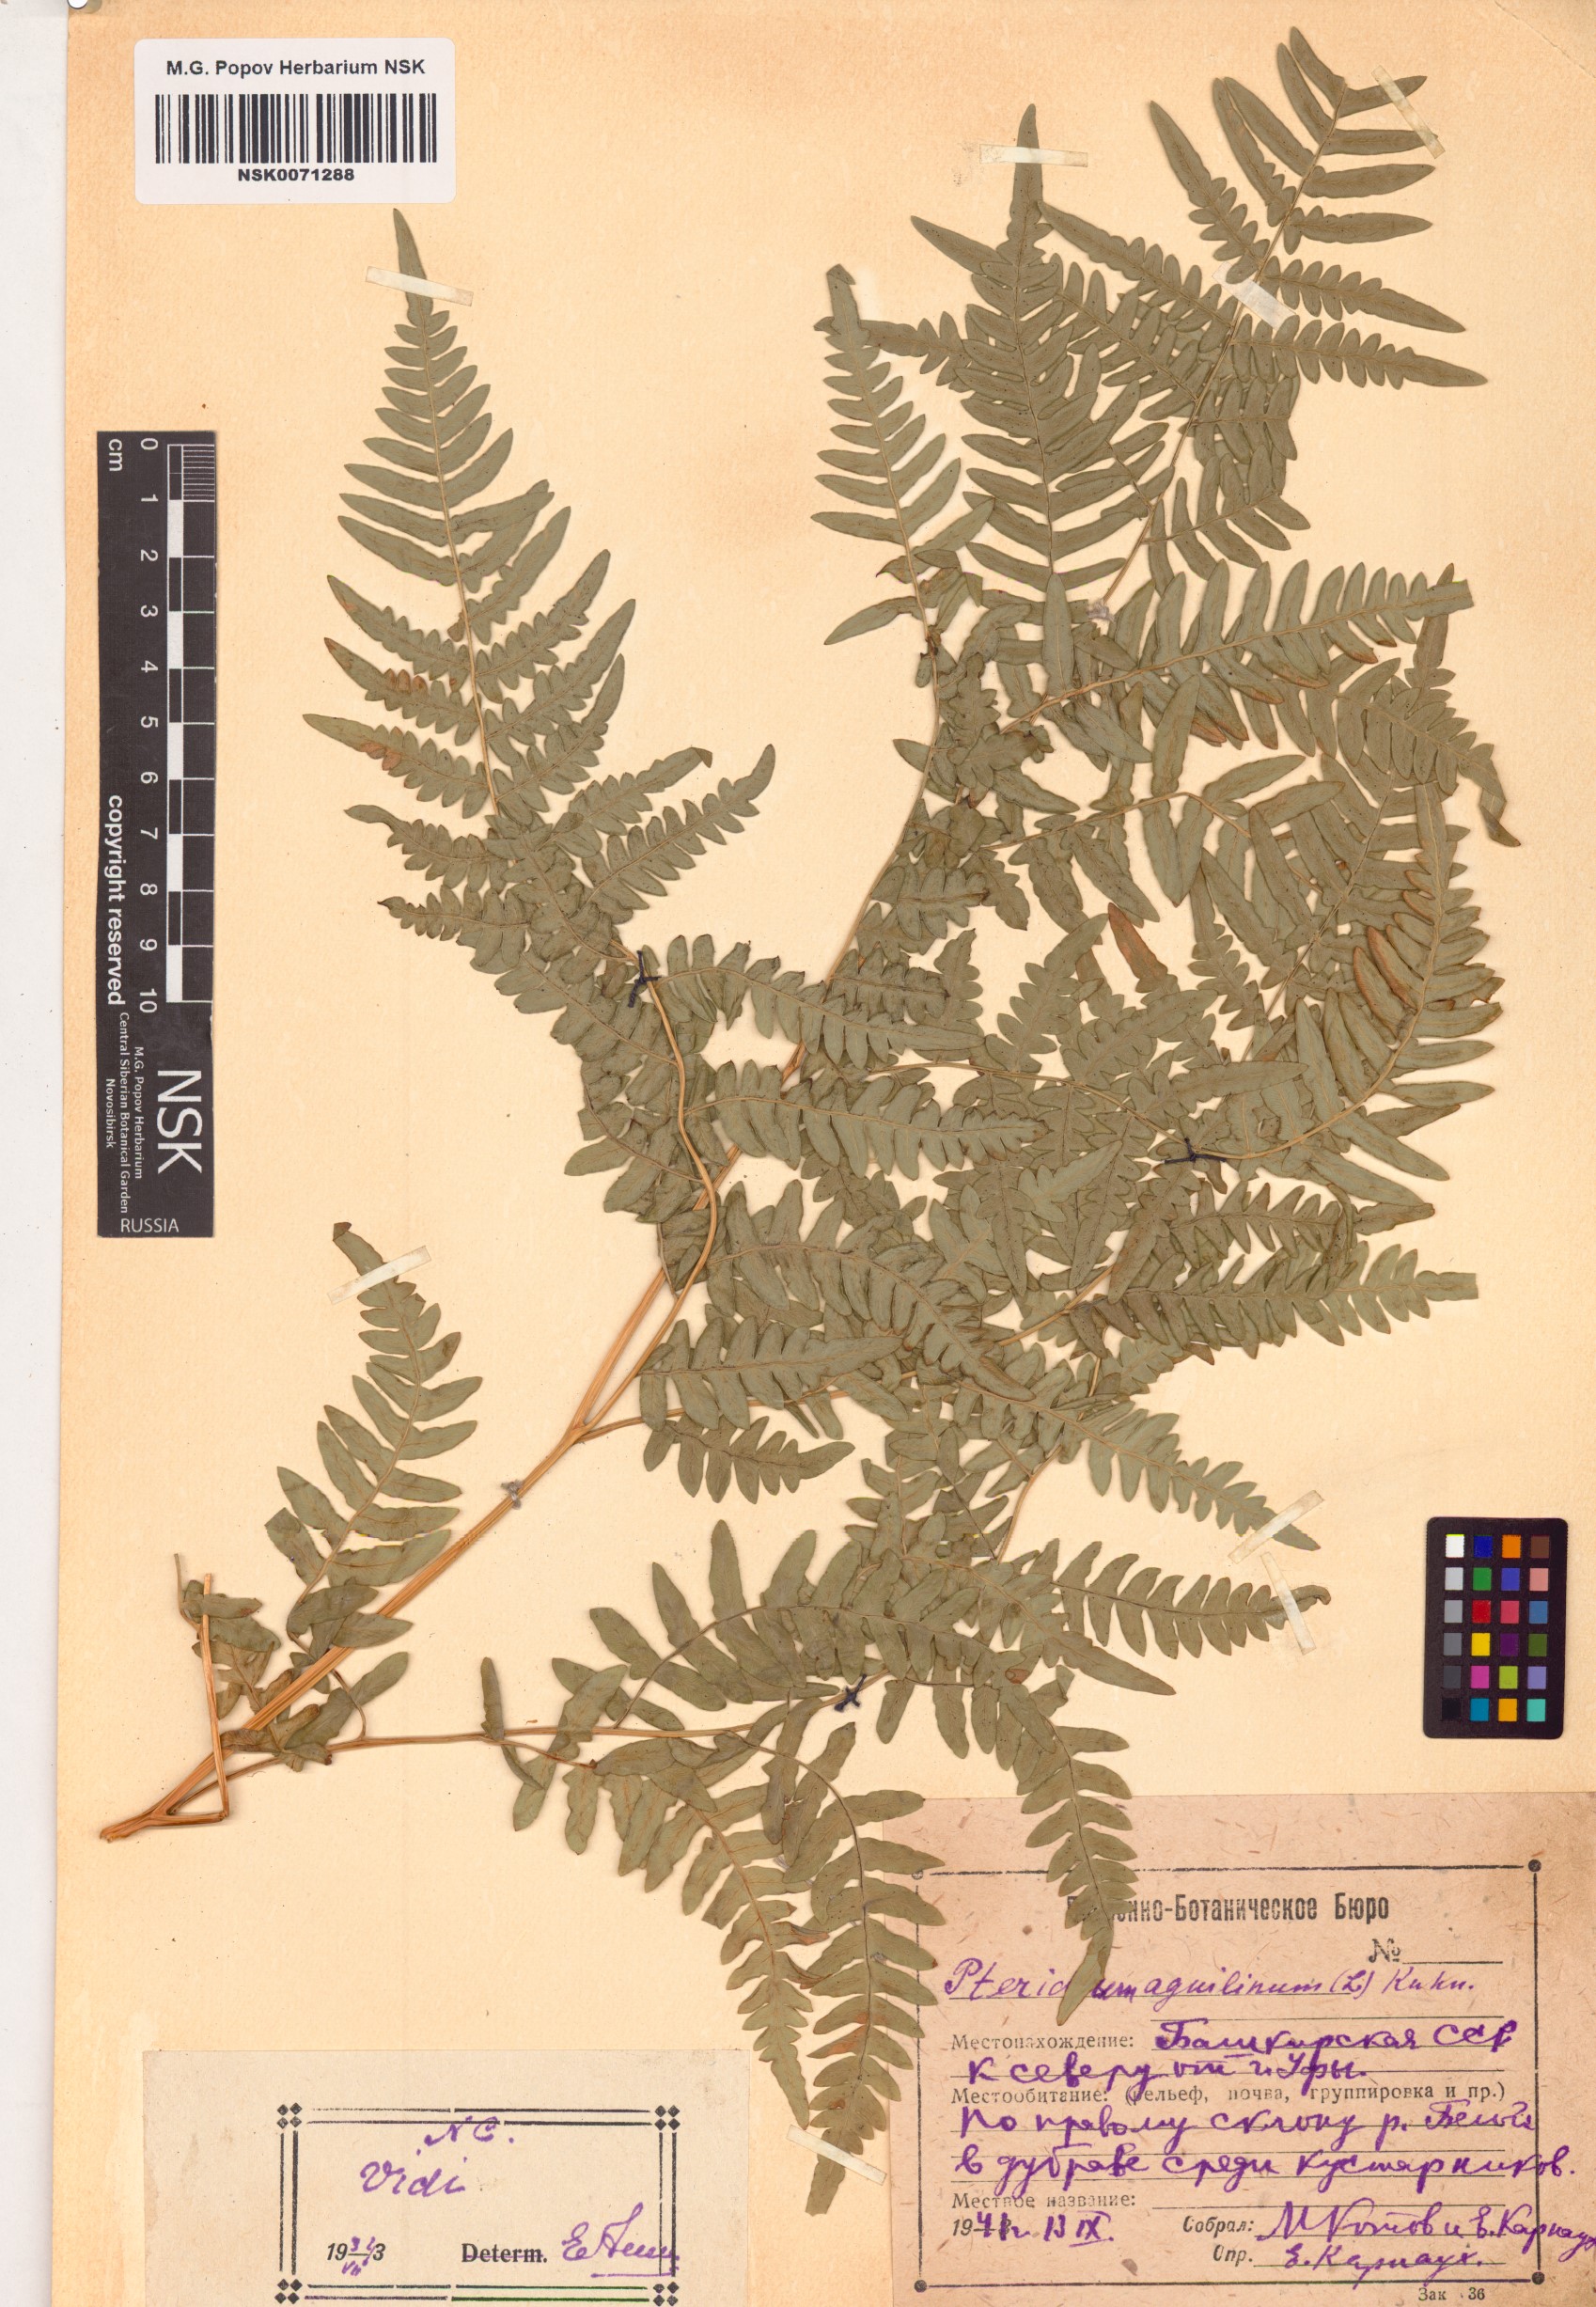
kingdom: Plantae
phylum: Tracheophyta
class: Polypodiopsida
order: Polypodiales
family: Dennstaedtiaceae
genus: Pteridium
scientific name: Pteridium aquilinum
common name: Bracken
